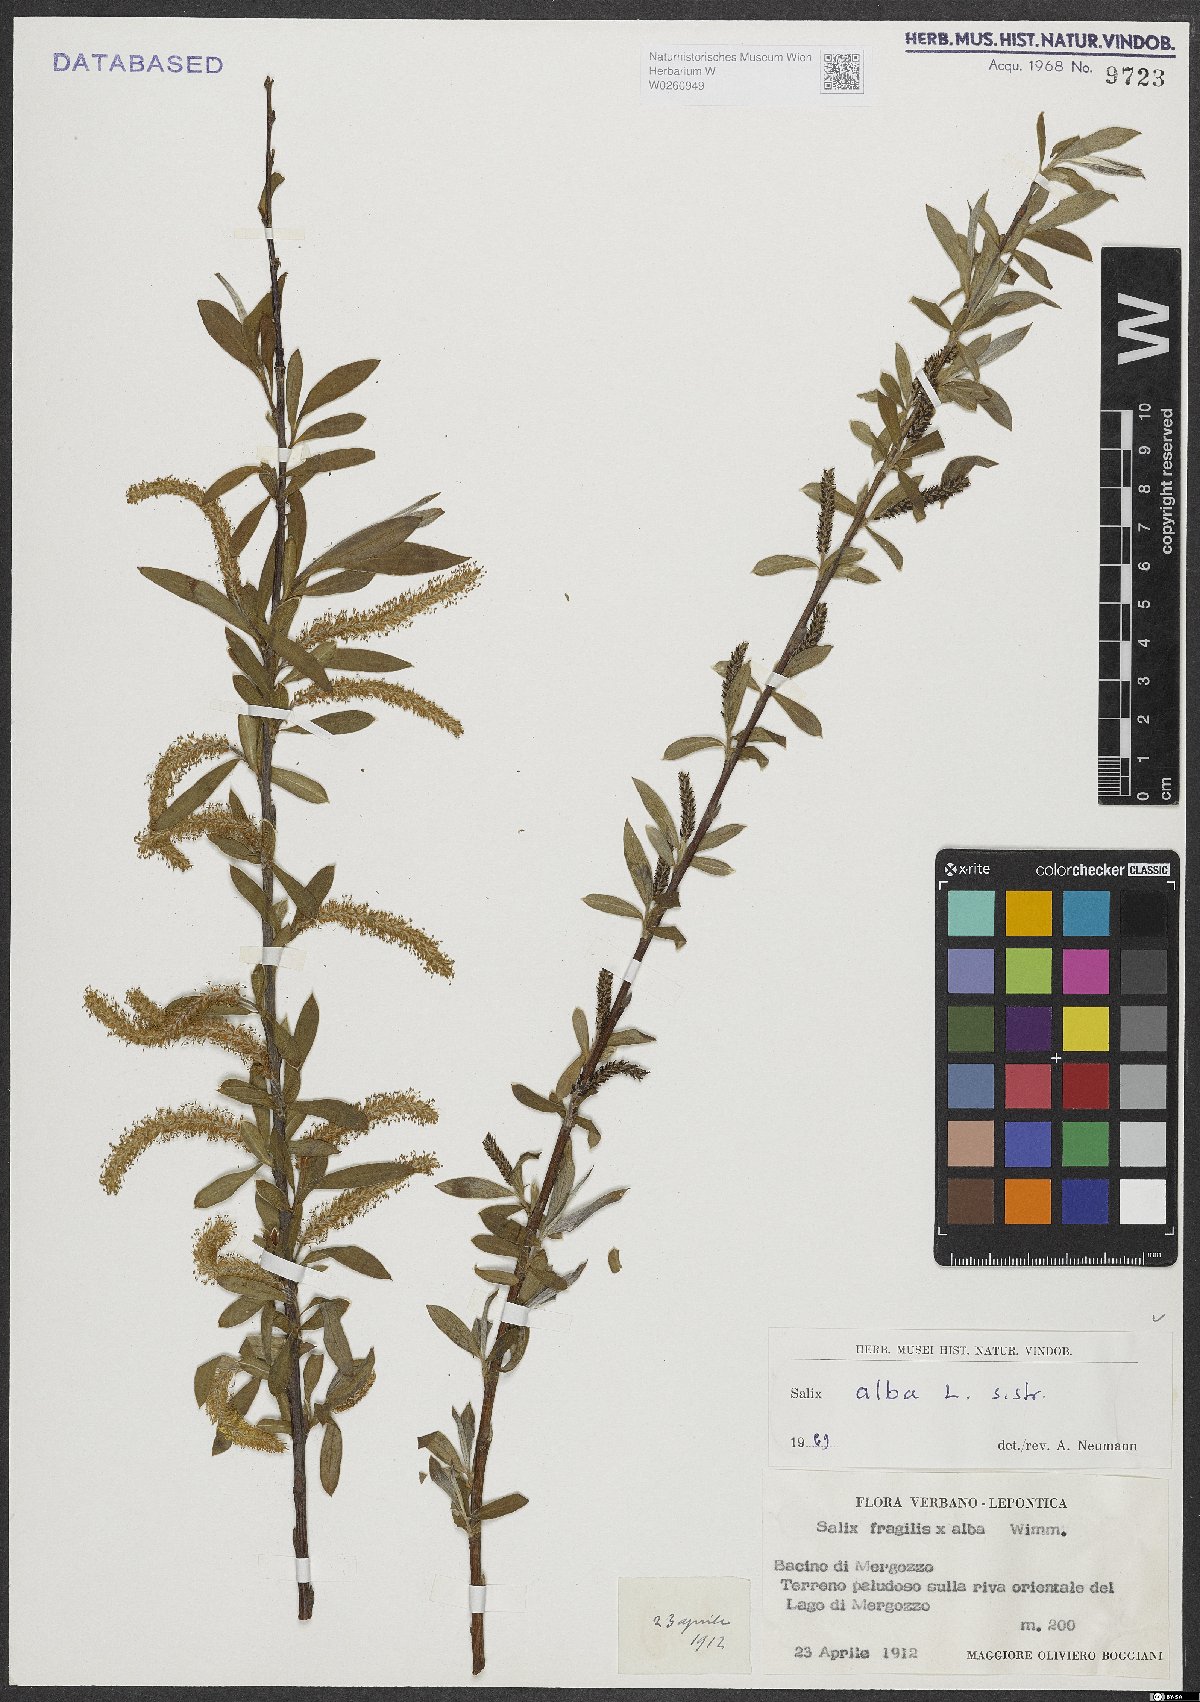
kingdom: Plantae
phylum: Tracheophyta
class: Magnoliopsida
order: Malpighiales
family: Salicaceae
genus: Salix
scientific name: Salix alba
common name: White willow
